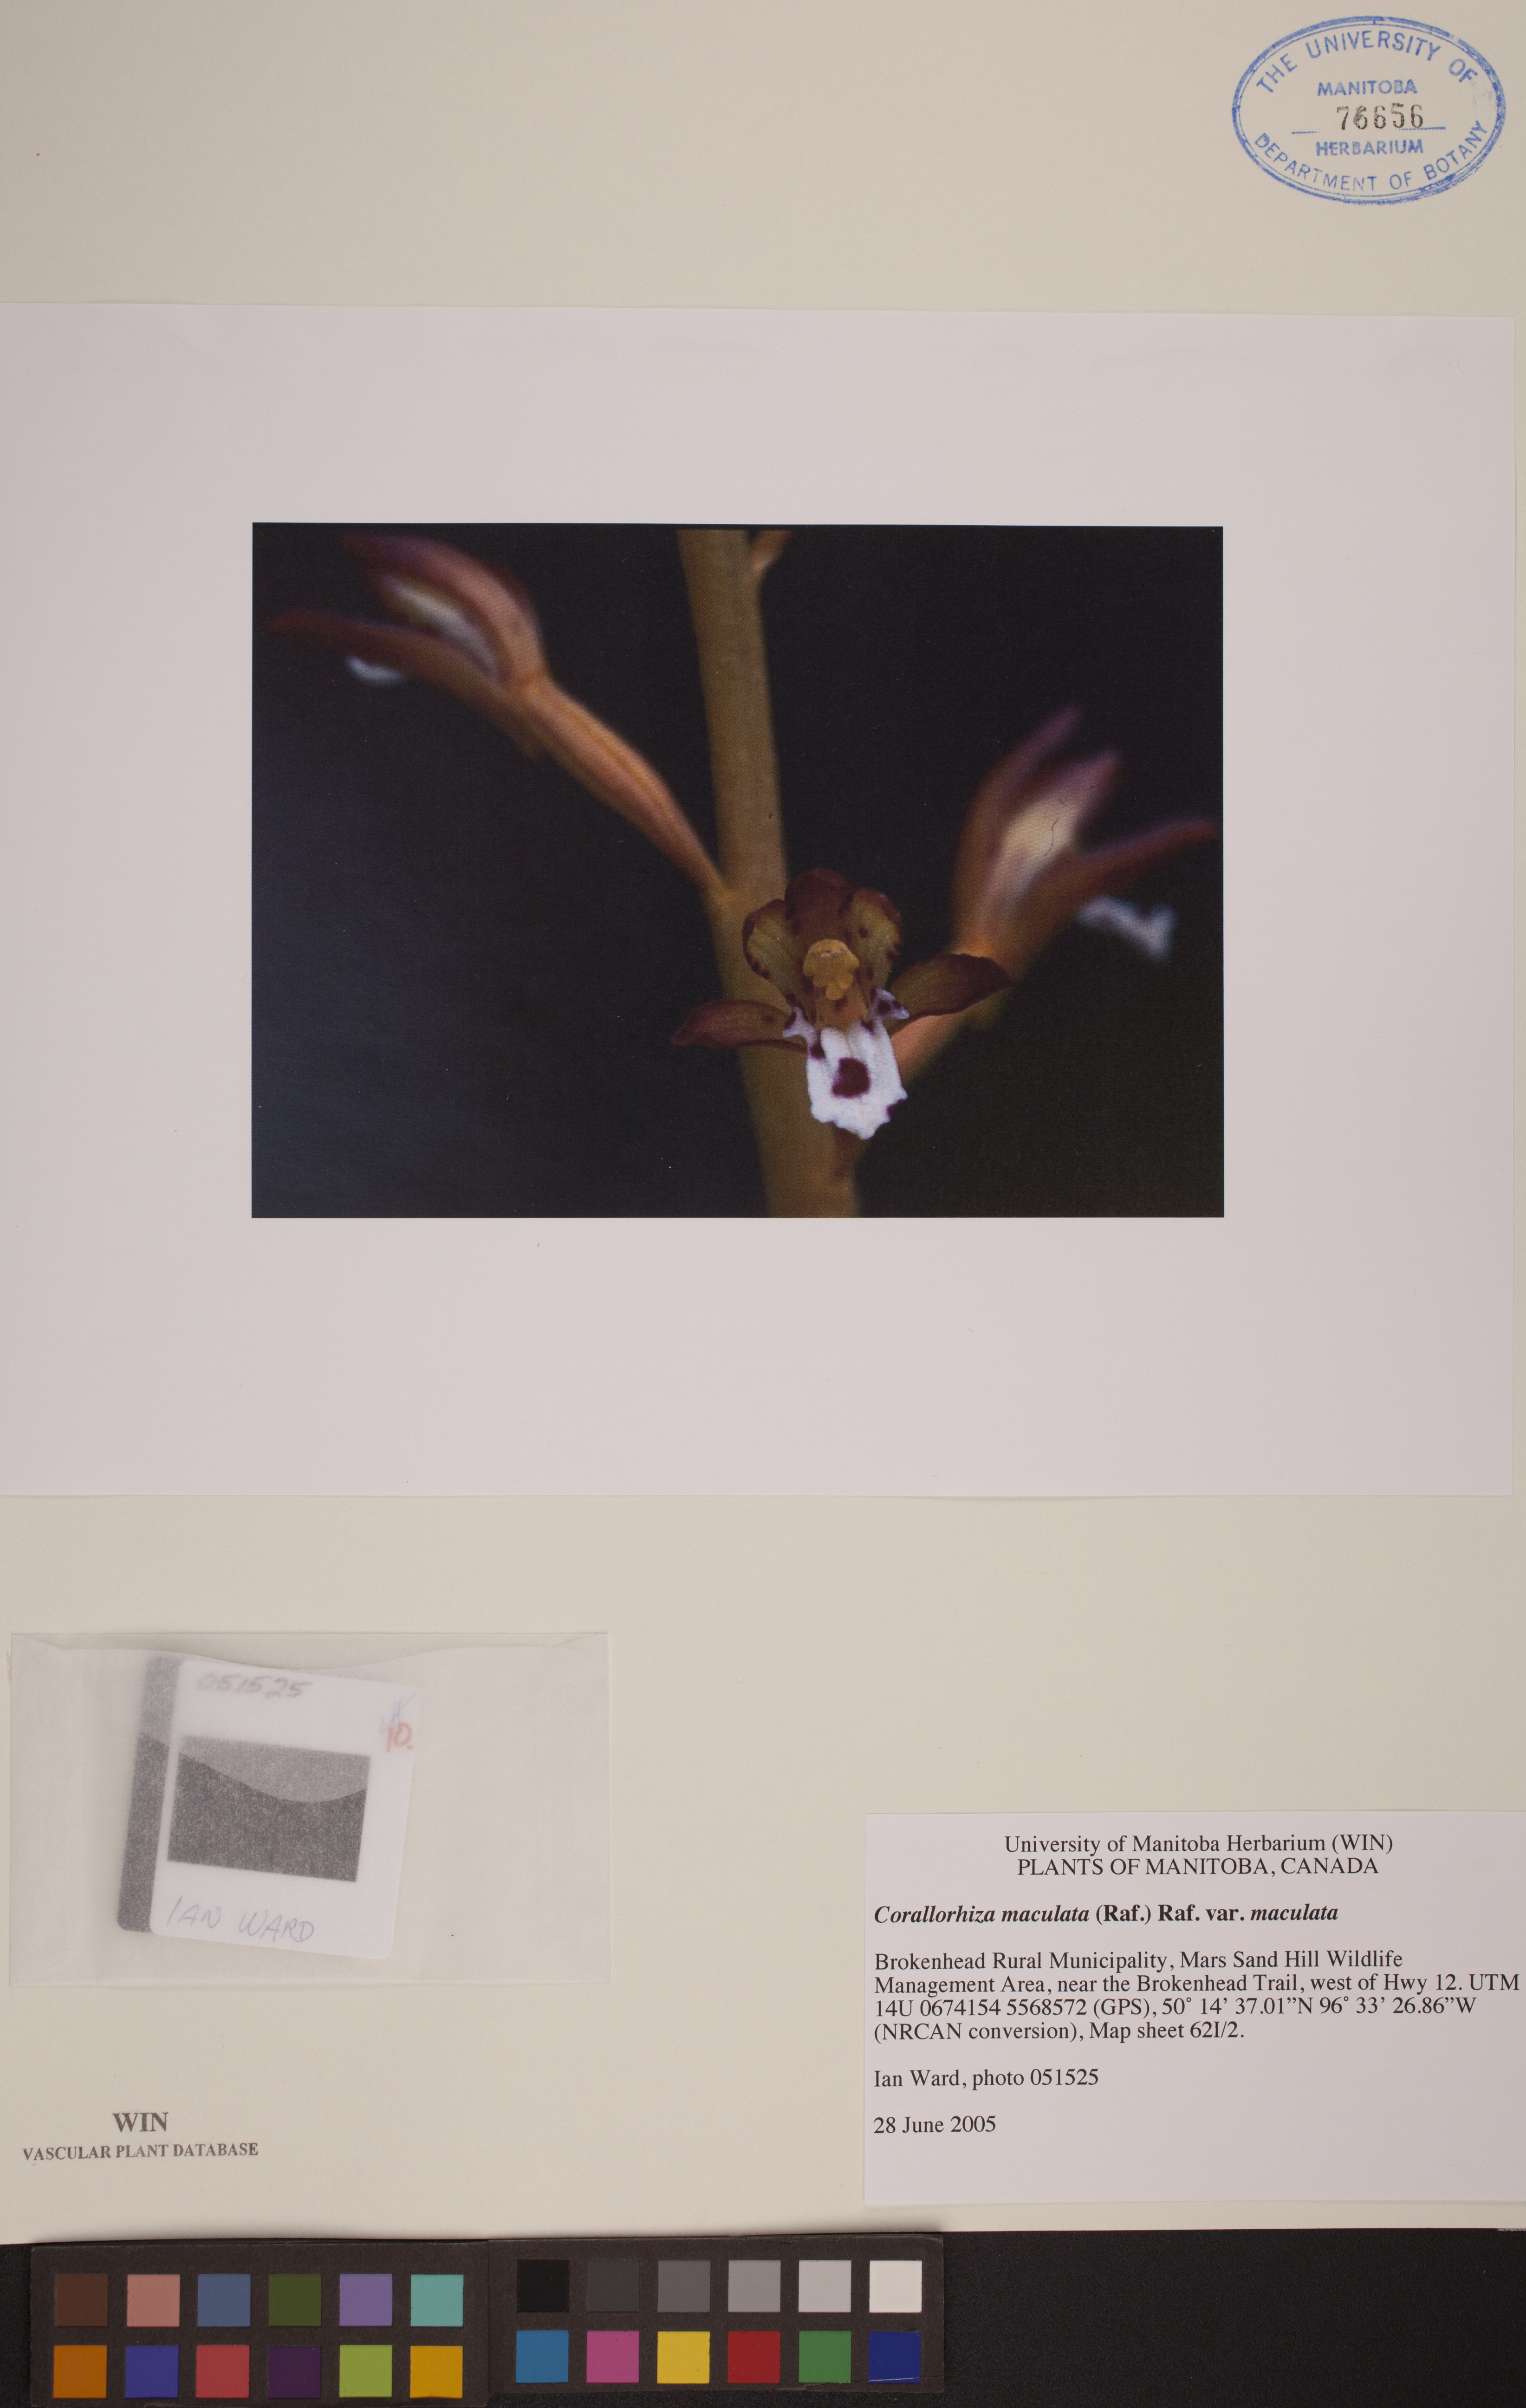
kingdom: Plantae
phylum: Tracheophyta
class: Liliopsida
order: Asparagales
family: Orchidaceae
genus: Corallorhiza
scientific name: Corallorhiza maculata
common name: Spotted coralroot
